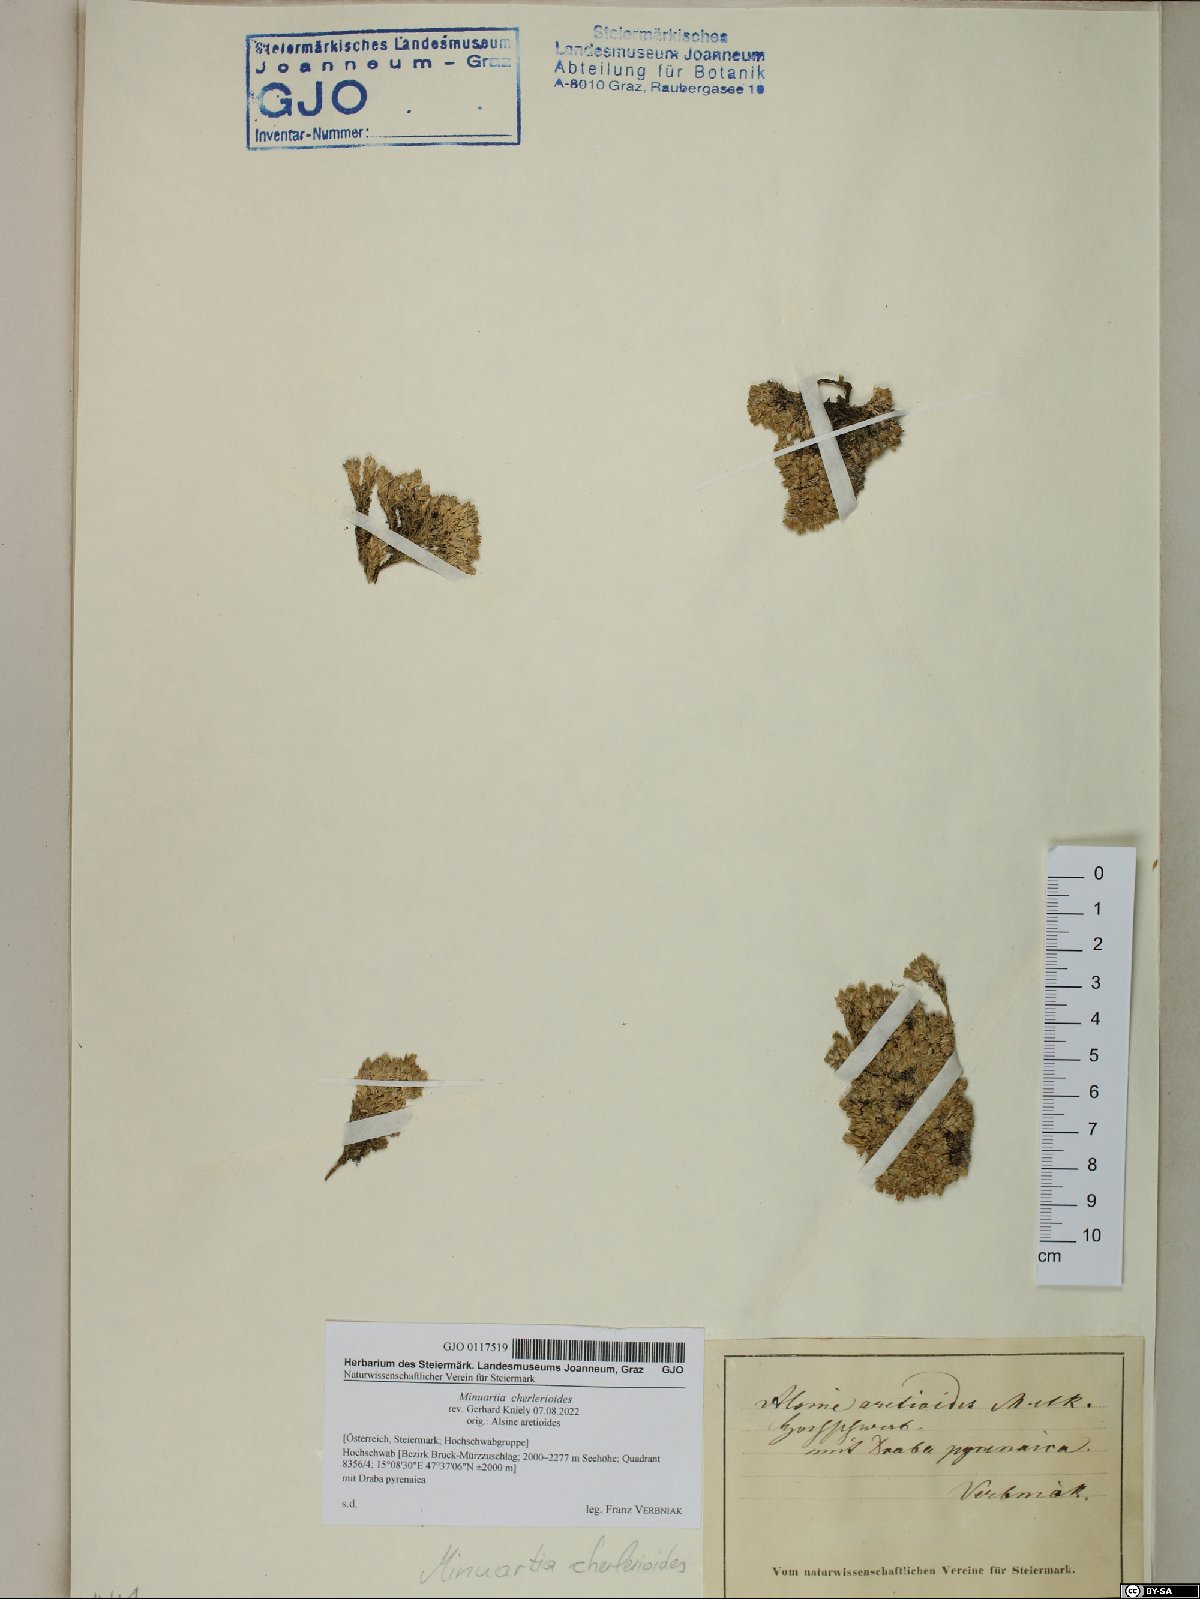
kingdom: Plantae
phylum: Tracheophyta
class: Magnoliopsida
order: Caryophyllales
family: Caryophyllaceae
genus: Facchinia
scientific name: Facchinia cherlerioides
